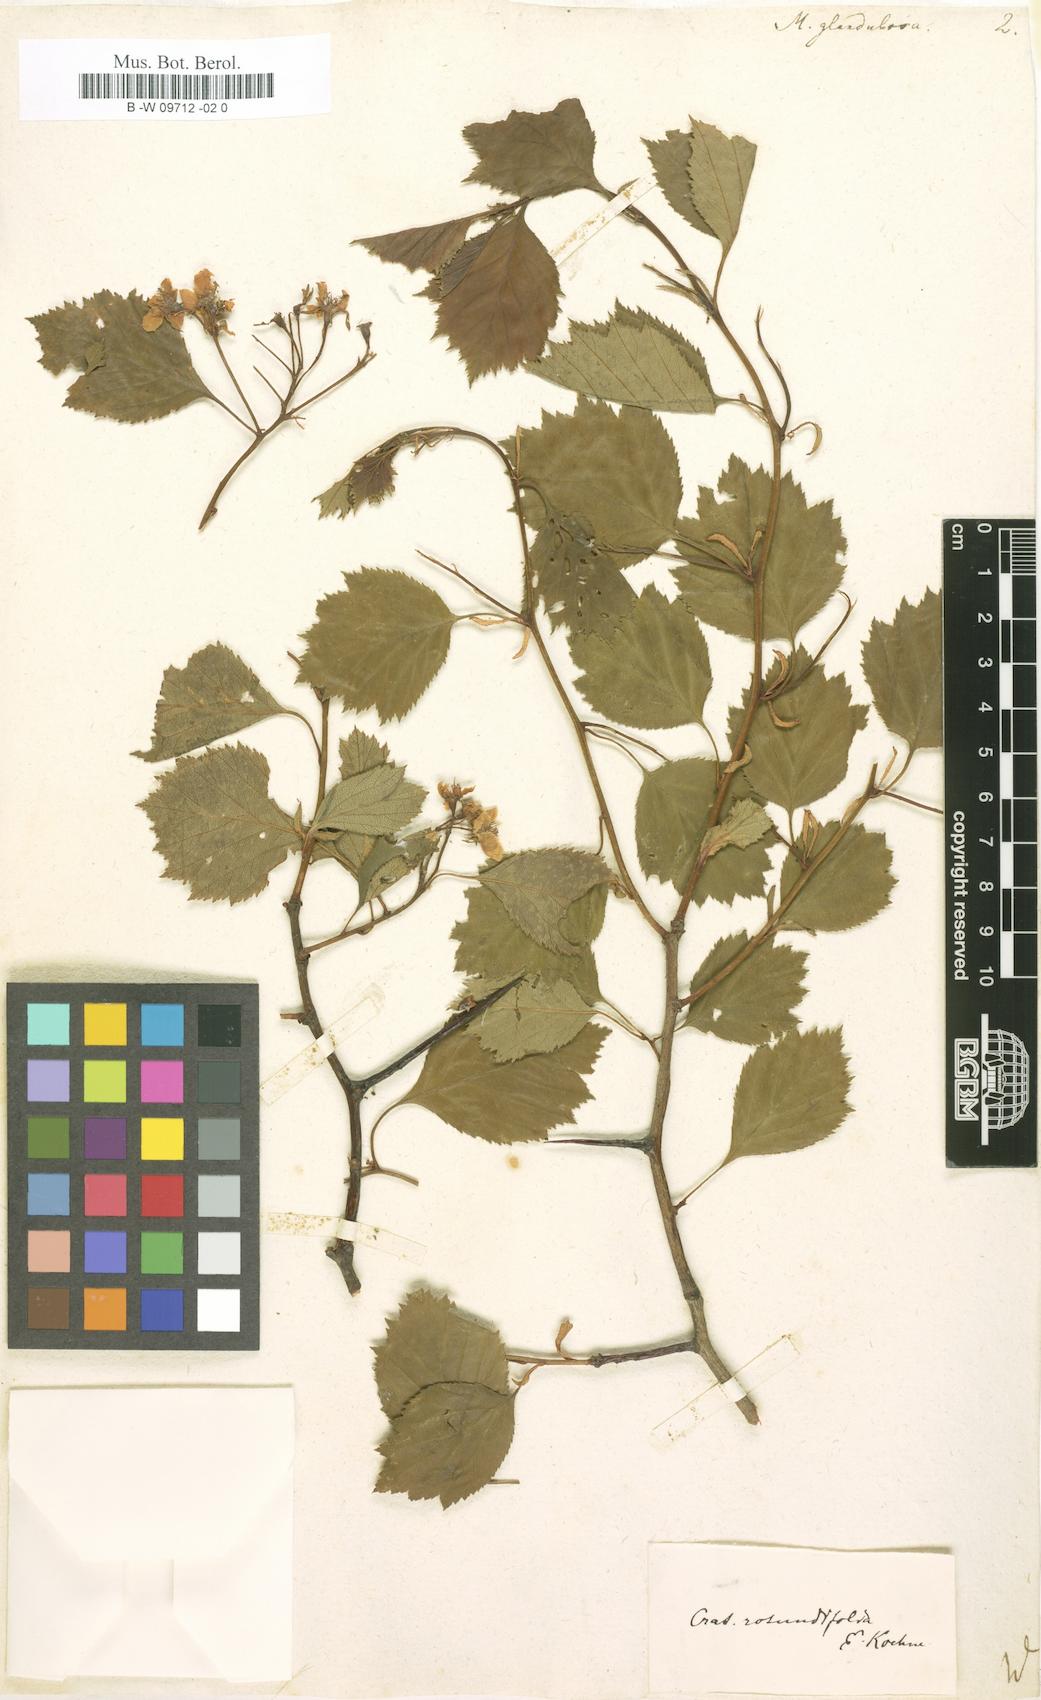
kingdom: Plantae
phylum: Tracheophyta
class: Magnoliopsida
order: Rosales
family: Rosaceae
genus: Crataegus
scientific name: Crataegus
